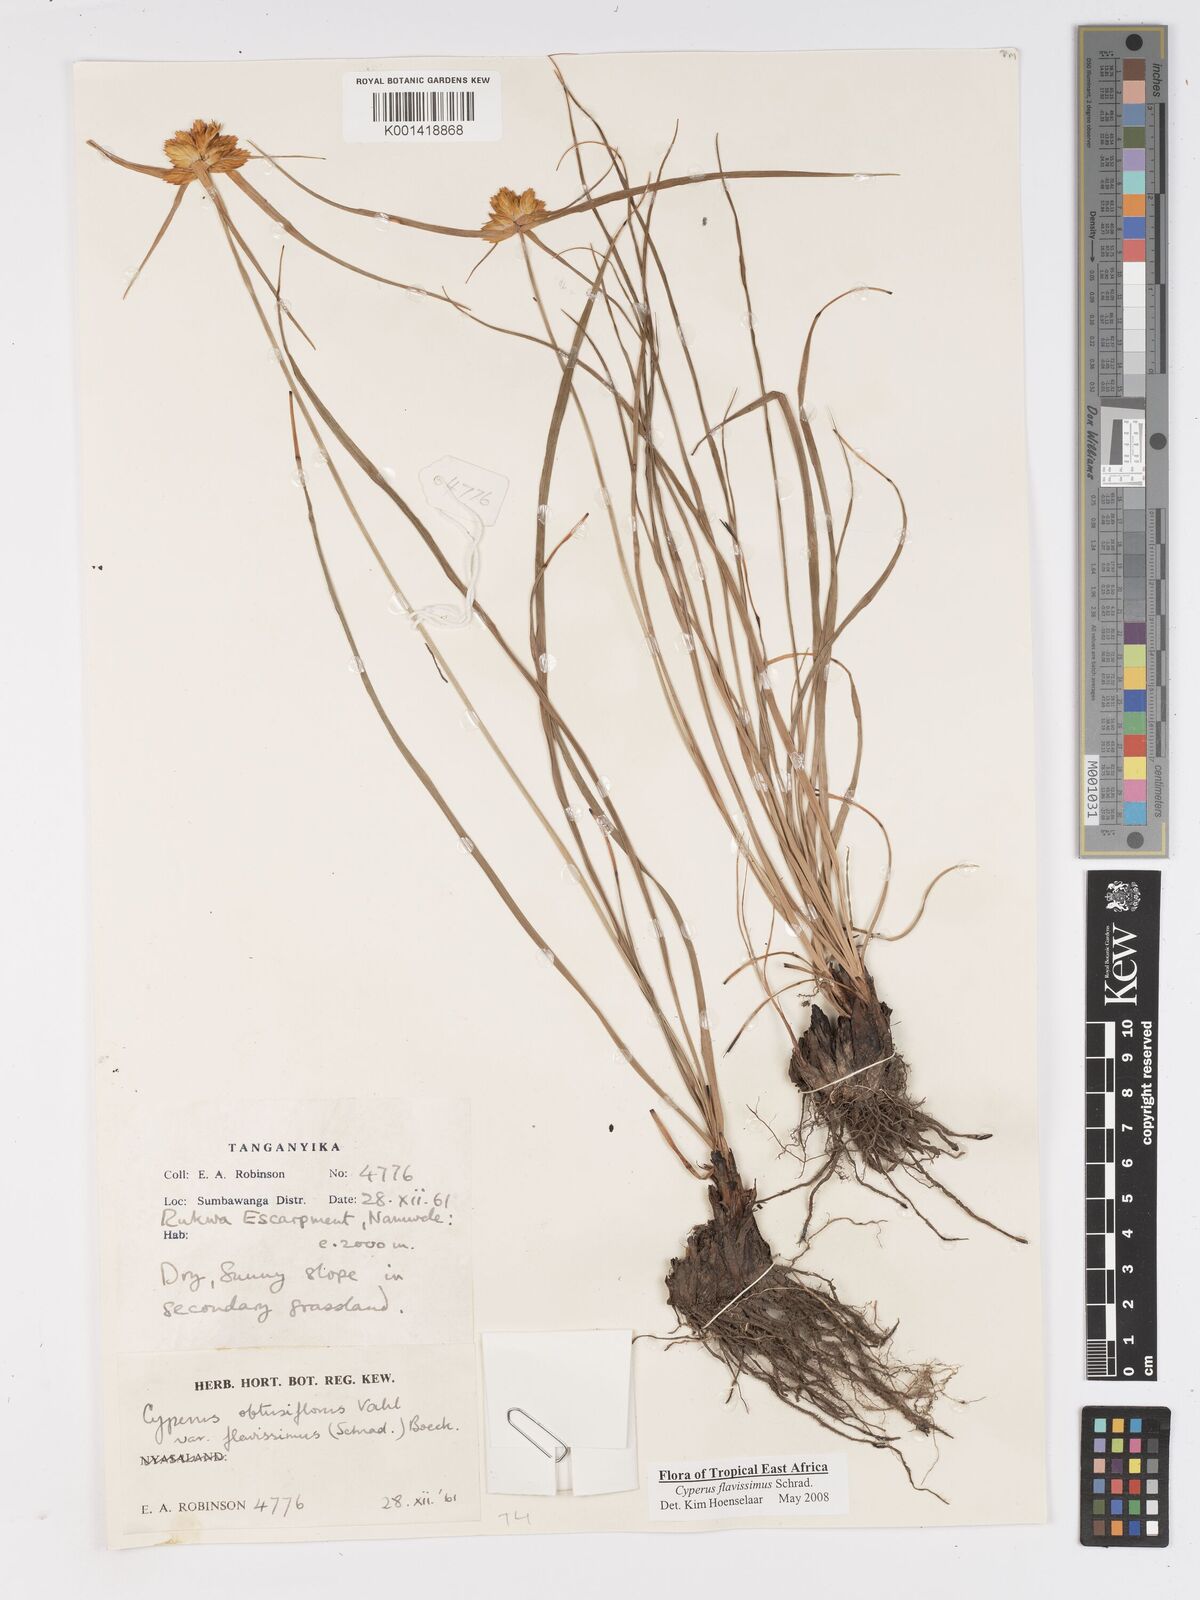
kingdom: Plantae
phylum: Tracheophyta
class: Liliopsida
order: Poales
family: Cyperaceae
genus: Cyperus
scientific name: Cyperus sphaerocephalus
